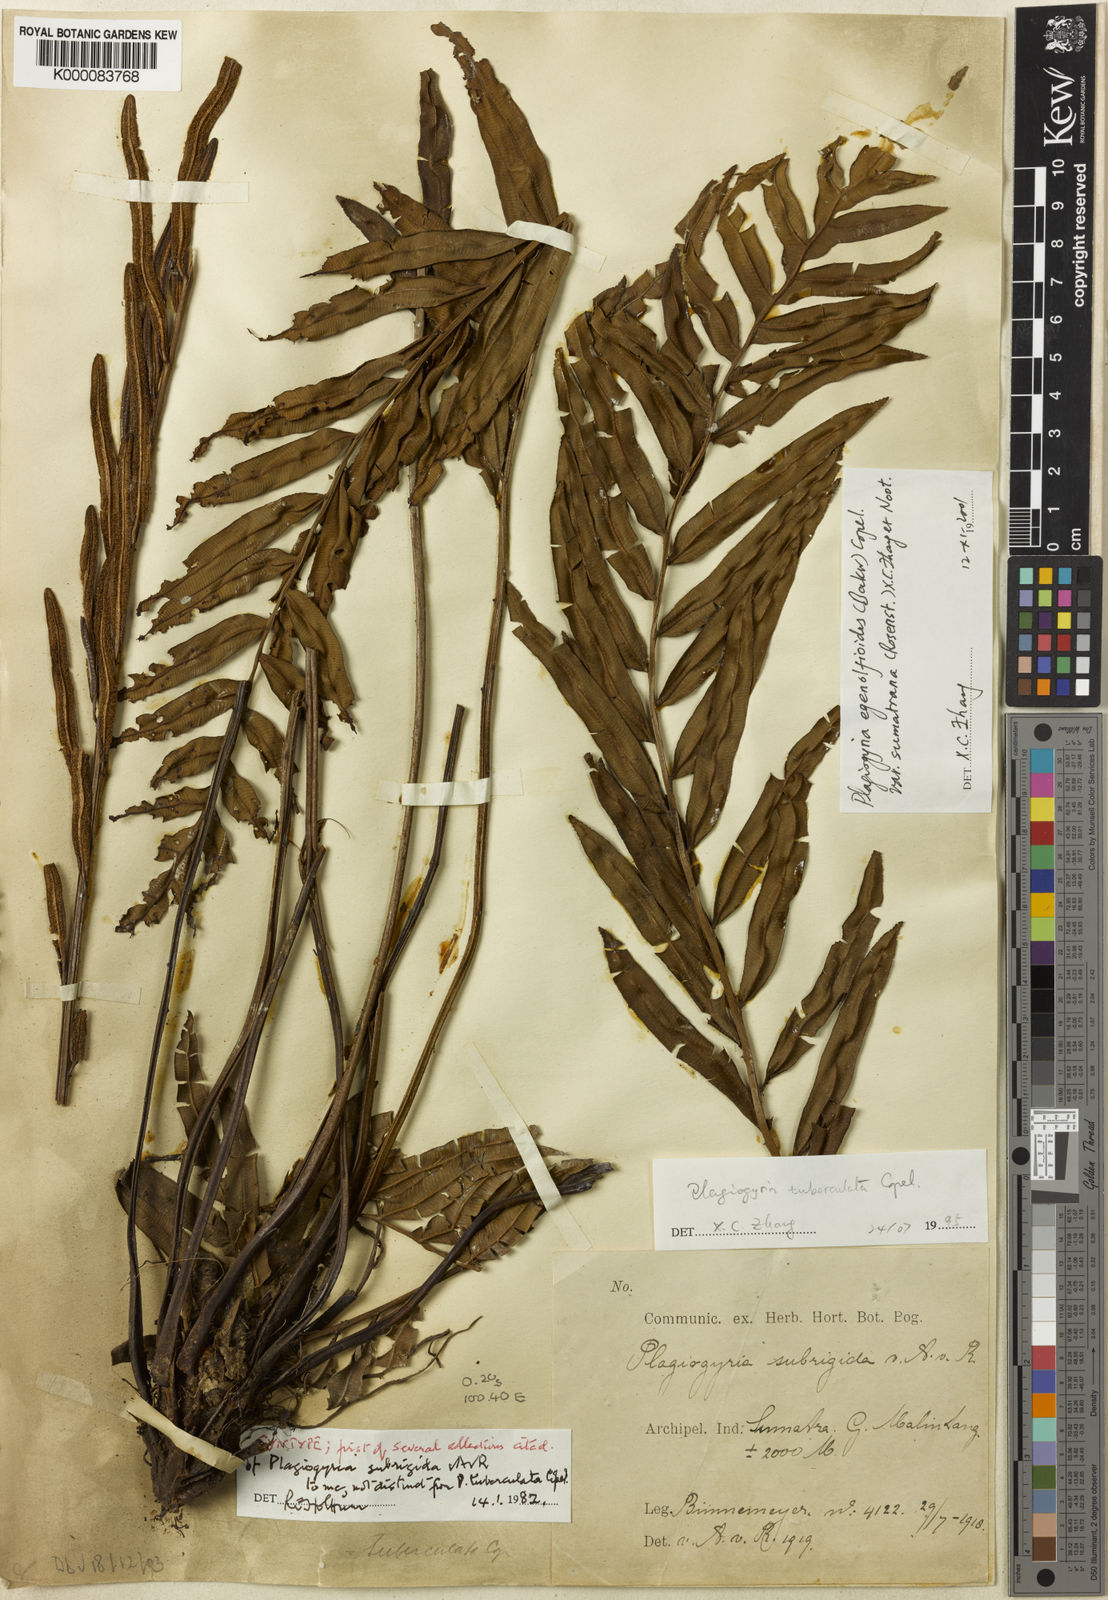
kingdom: Plantae
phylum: Tracheophyta
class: Polypodiopsida
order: Cyatheales
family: Plagiogyriaceae
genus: Plagiogyria
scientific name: Plagiogyria egenolfioides
